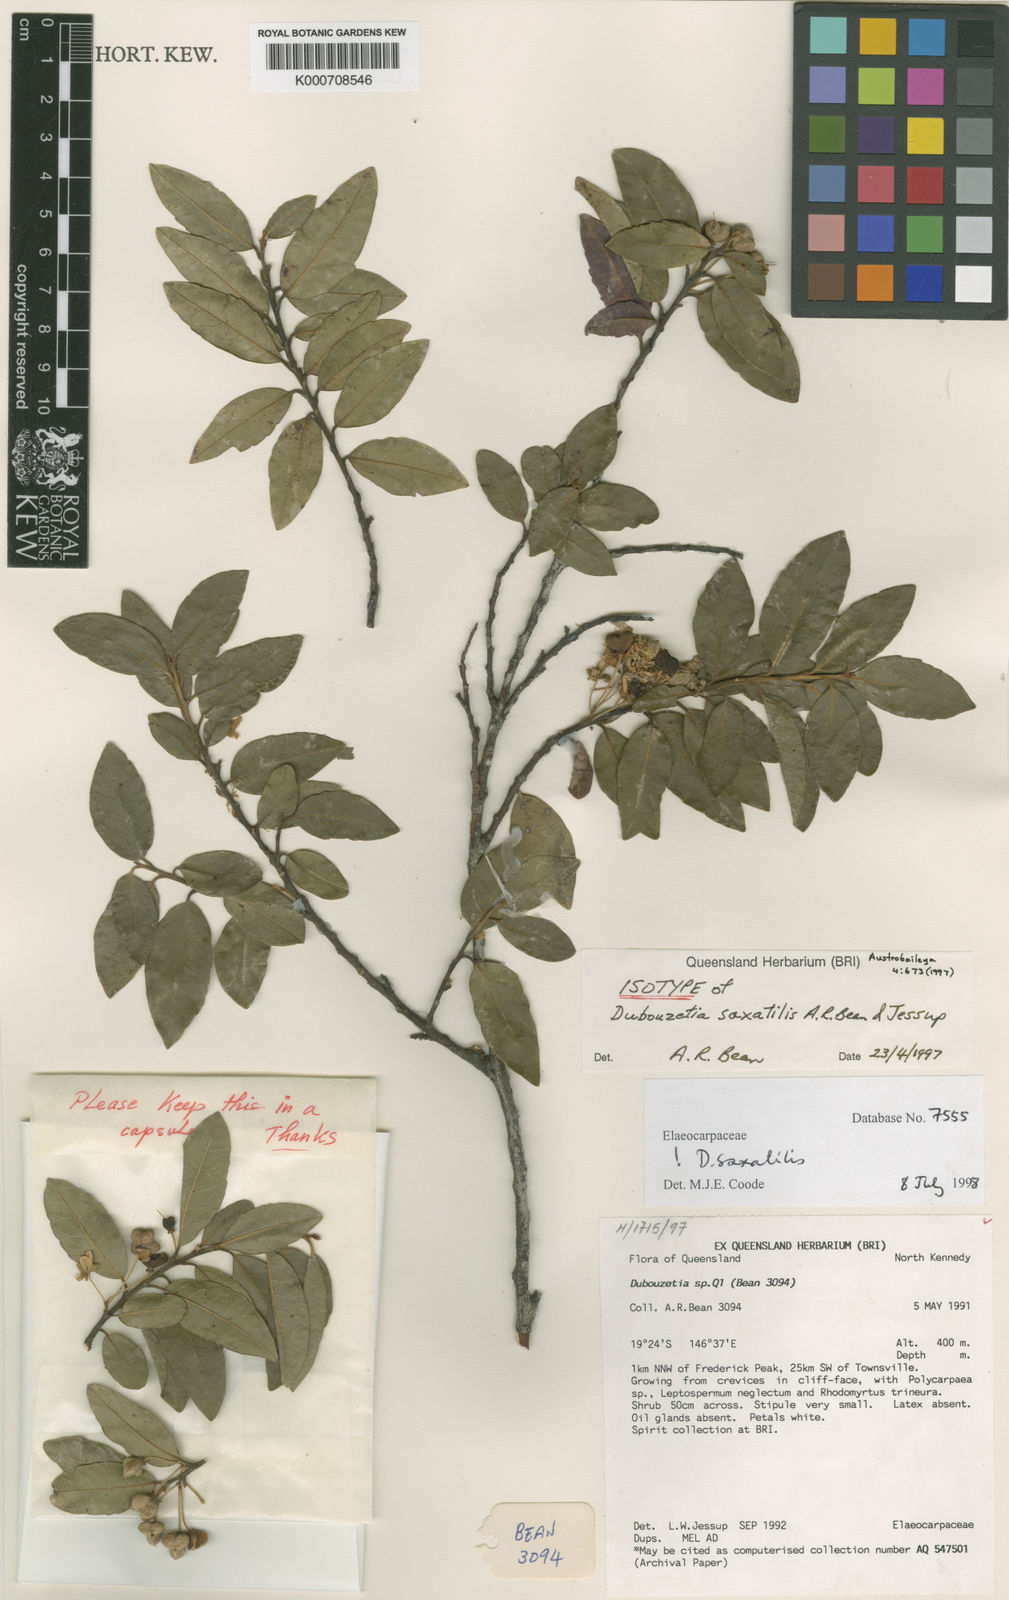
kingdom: Plantae
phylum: Tracheophyta
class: Magnoliopsida
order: Oxalidales
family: Elaeocarpaceae
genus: Dubouzetia
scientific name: Dubouzetia saxatilis
